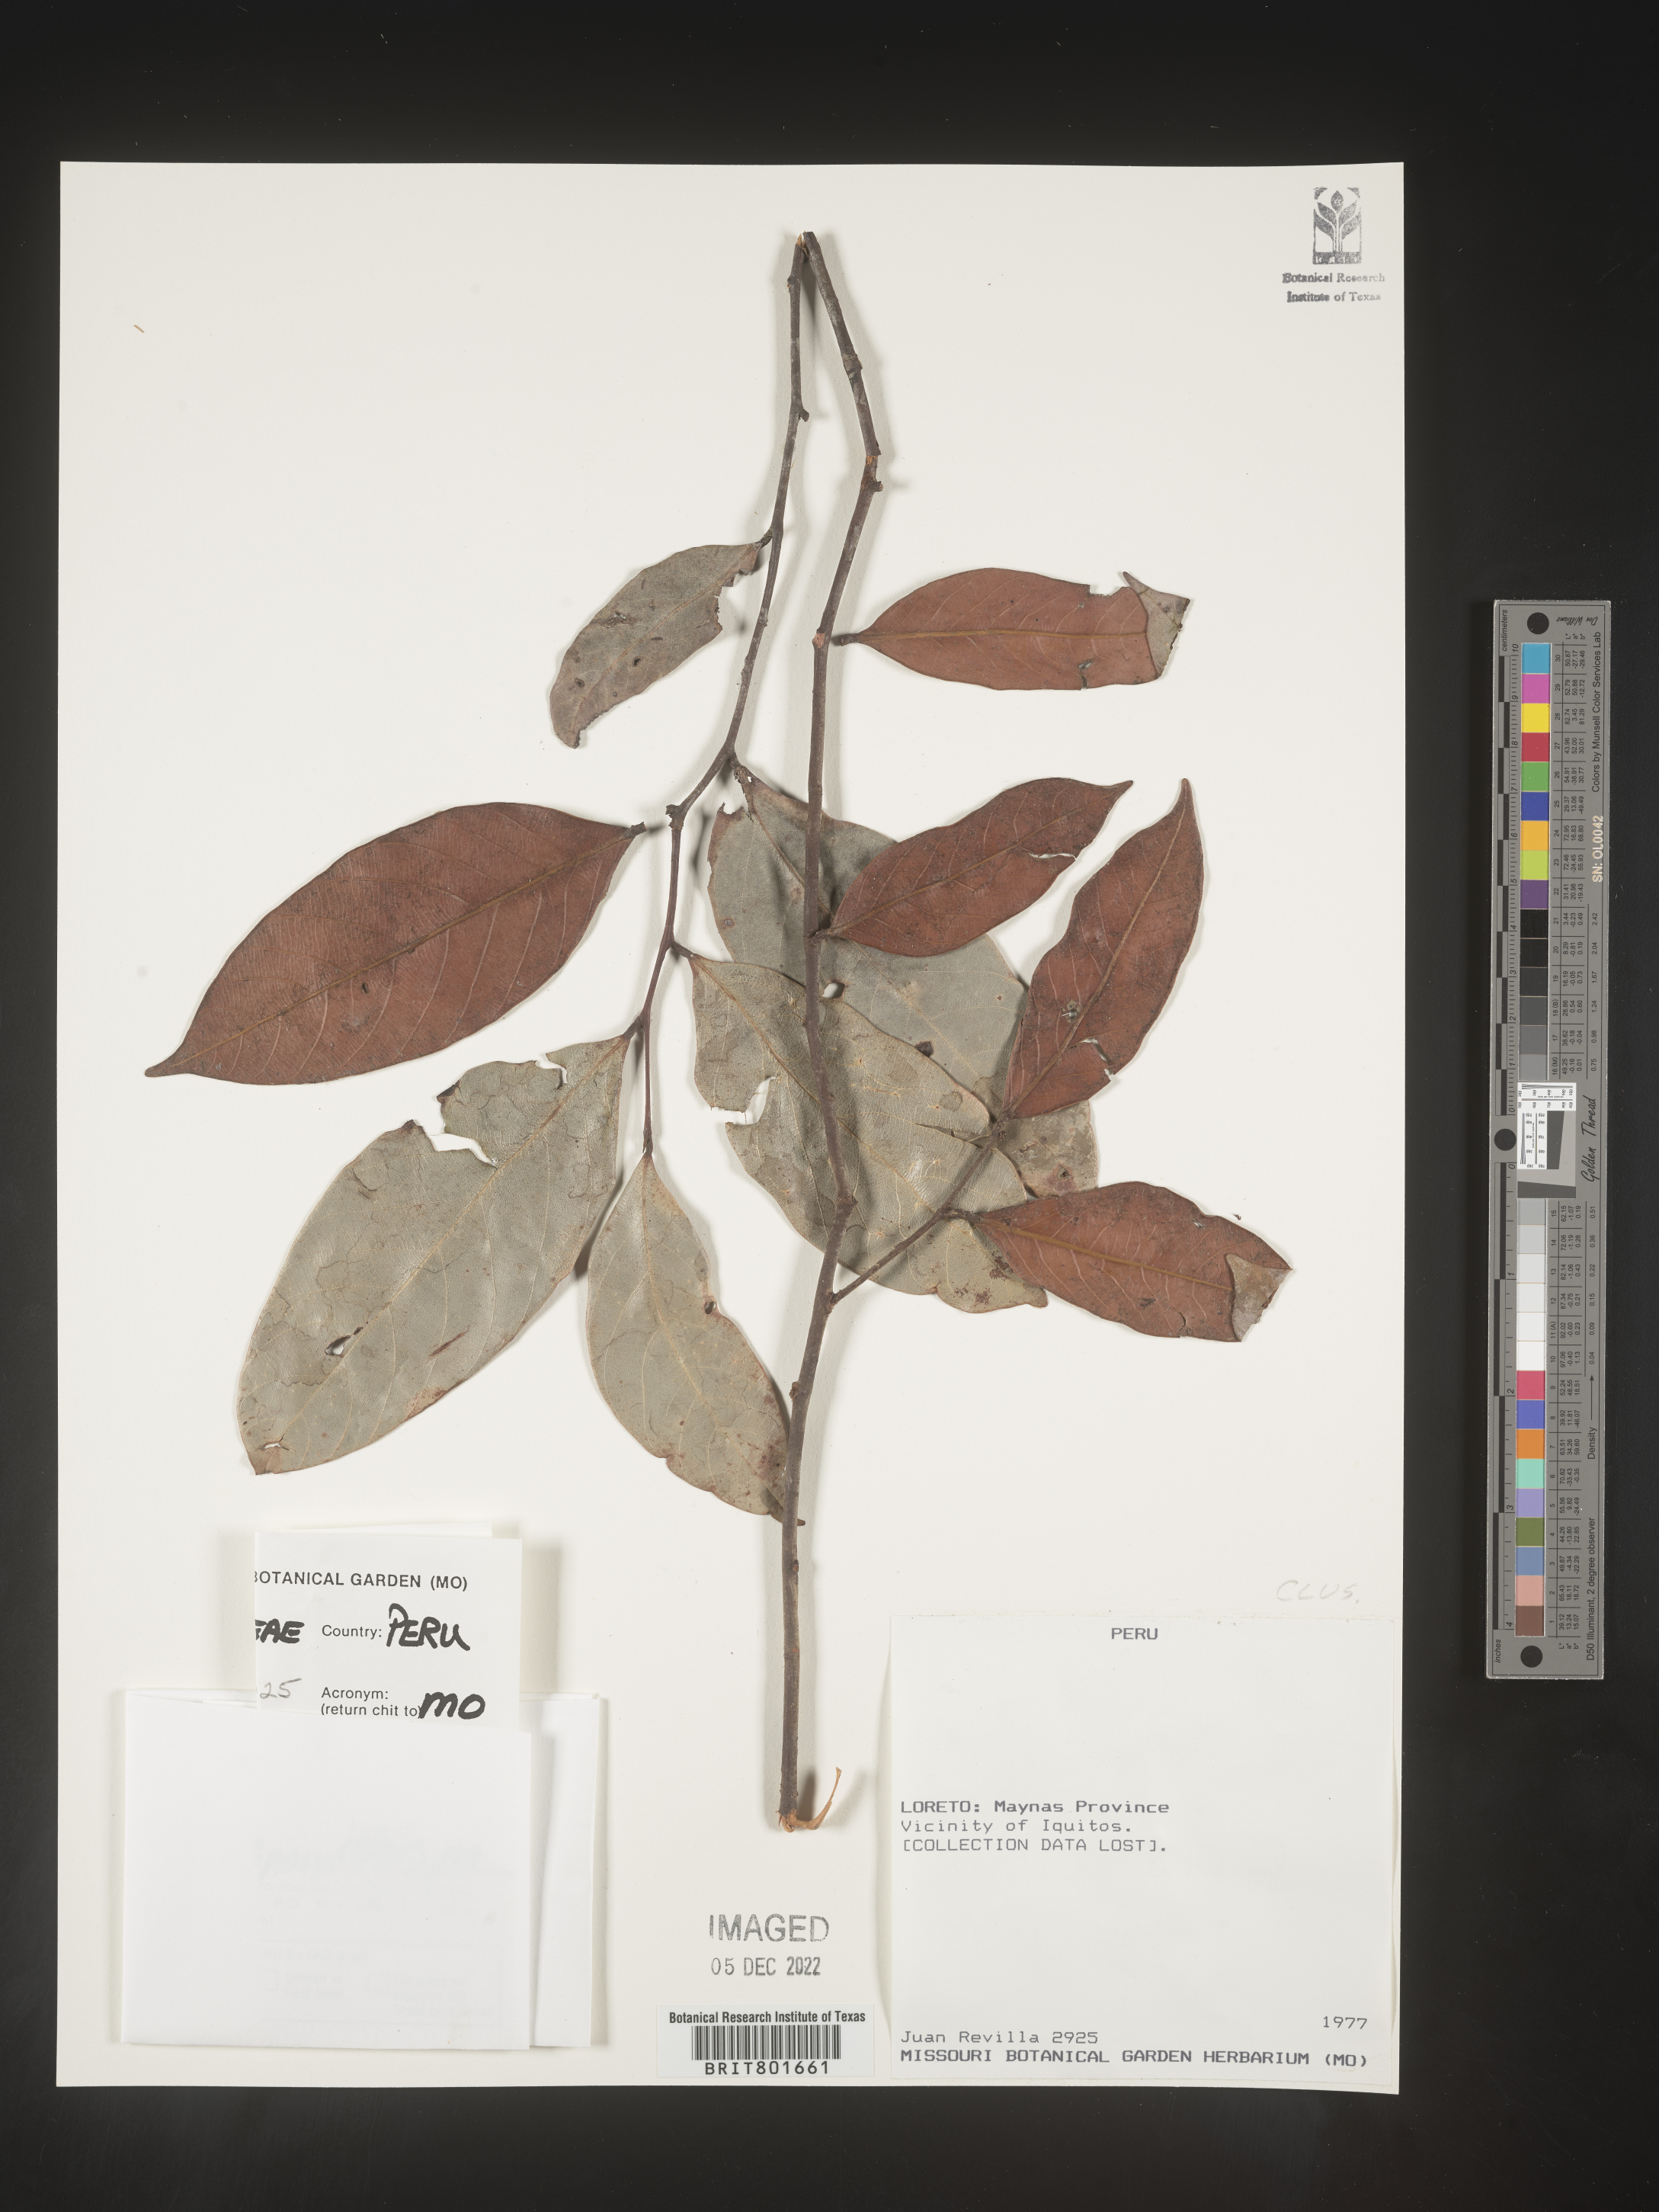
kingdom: Plantae
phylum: Tracheophyta
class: Magnoliopsida
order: Malpighiales
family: Clusiaceae
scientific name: Clusiaceae
